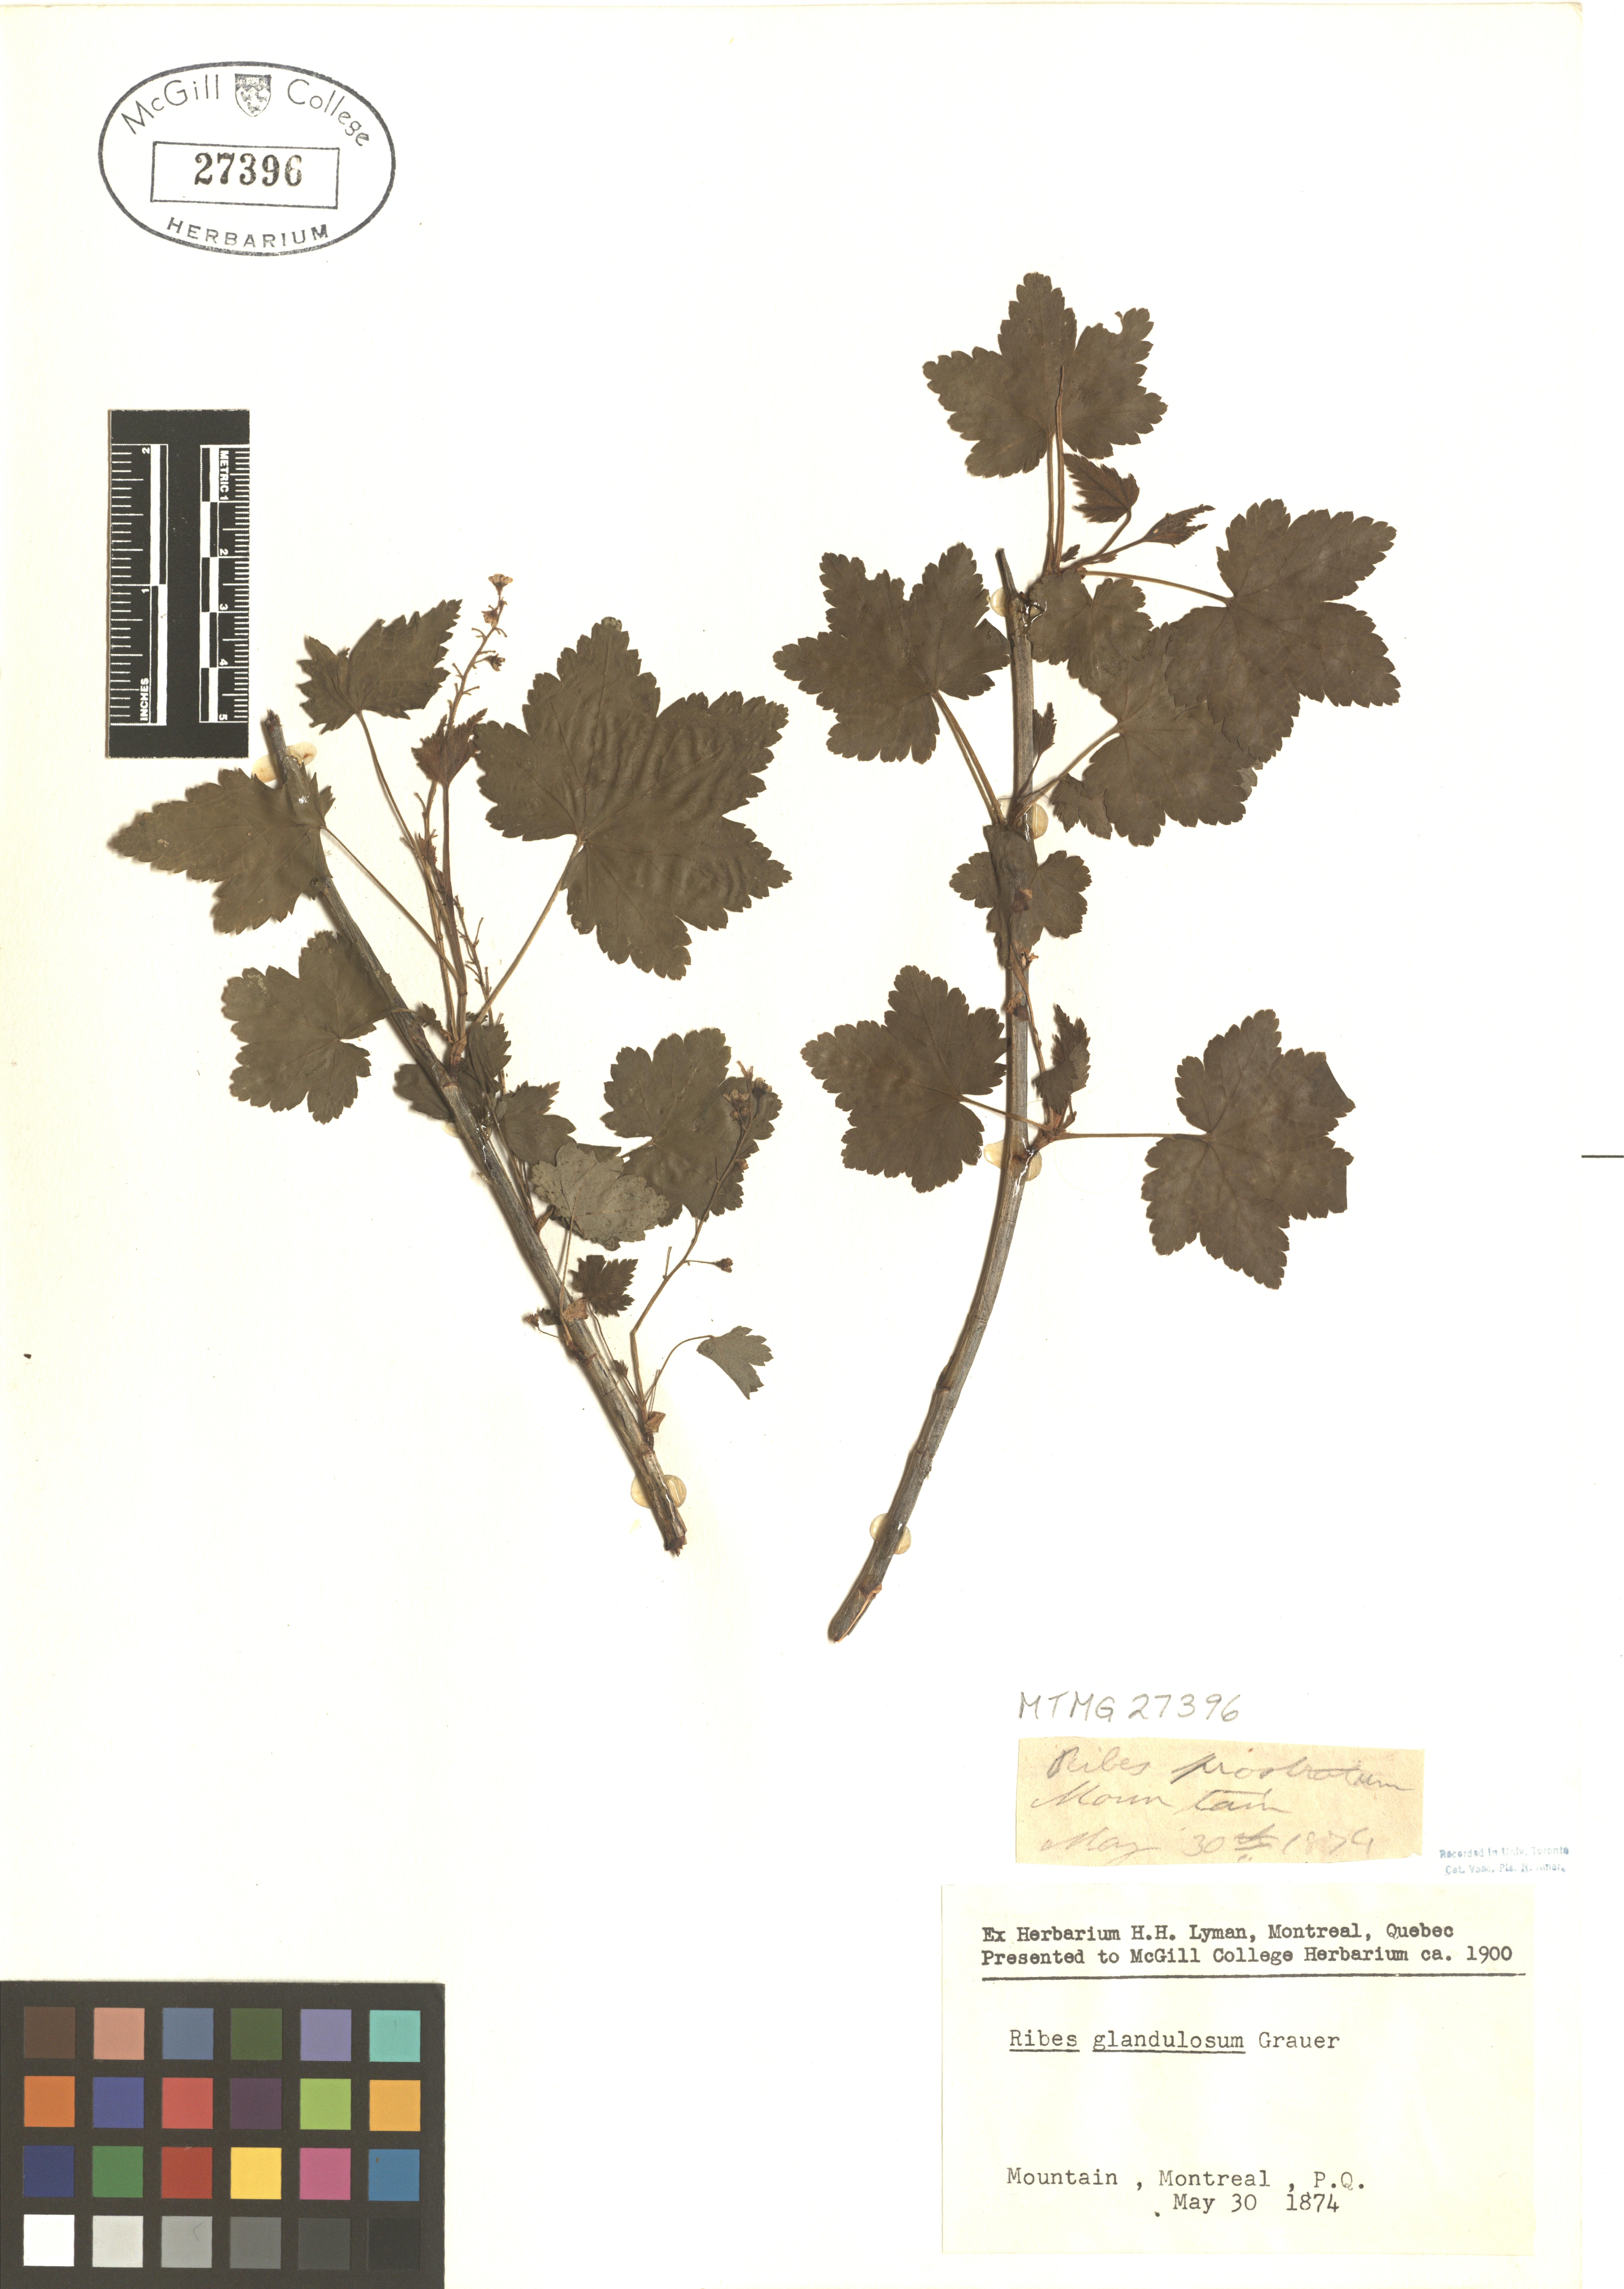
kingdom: Plantae
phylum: Tracheophyta
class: Magnoliopsida
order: Saxifragales
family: Grossulariaceae
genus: Ribes
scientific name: Ribes glandulosum
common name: Skunk currant
